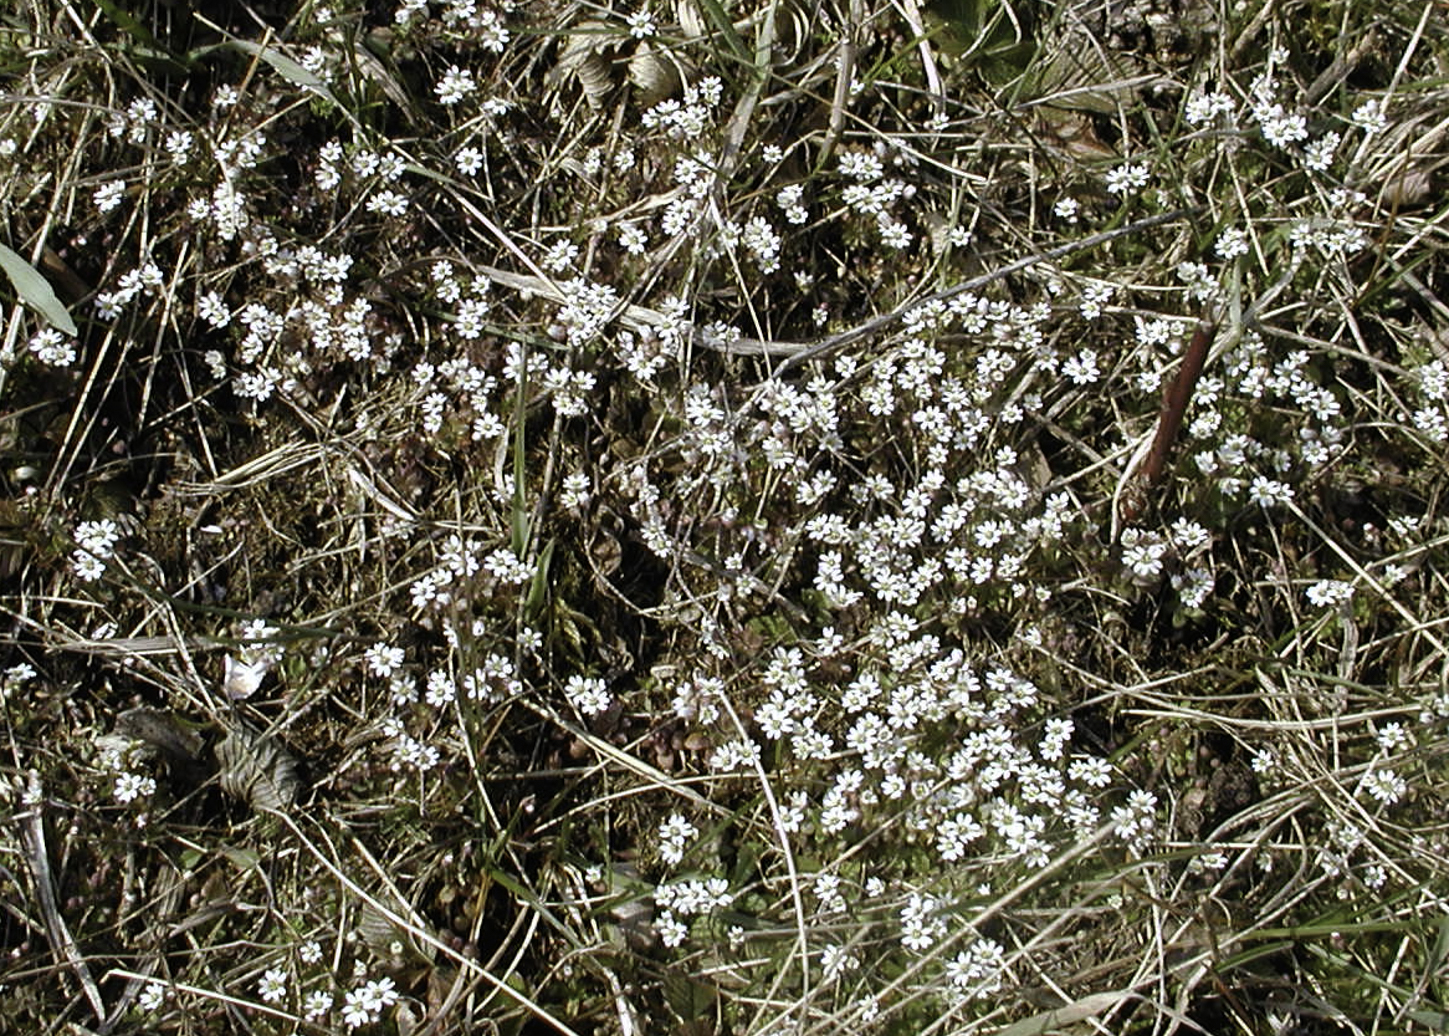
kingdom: Plantae
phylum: Tracheophyta
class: Magnoliopsida
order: Brassicales
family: Brassicaceae
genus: Draba
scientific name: Draba verna
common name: Spring draba
